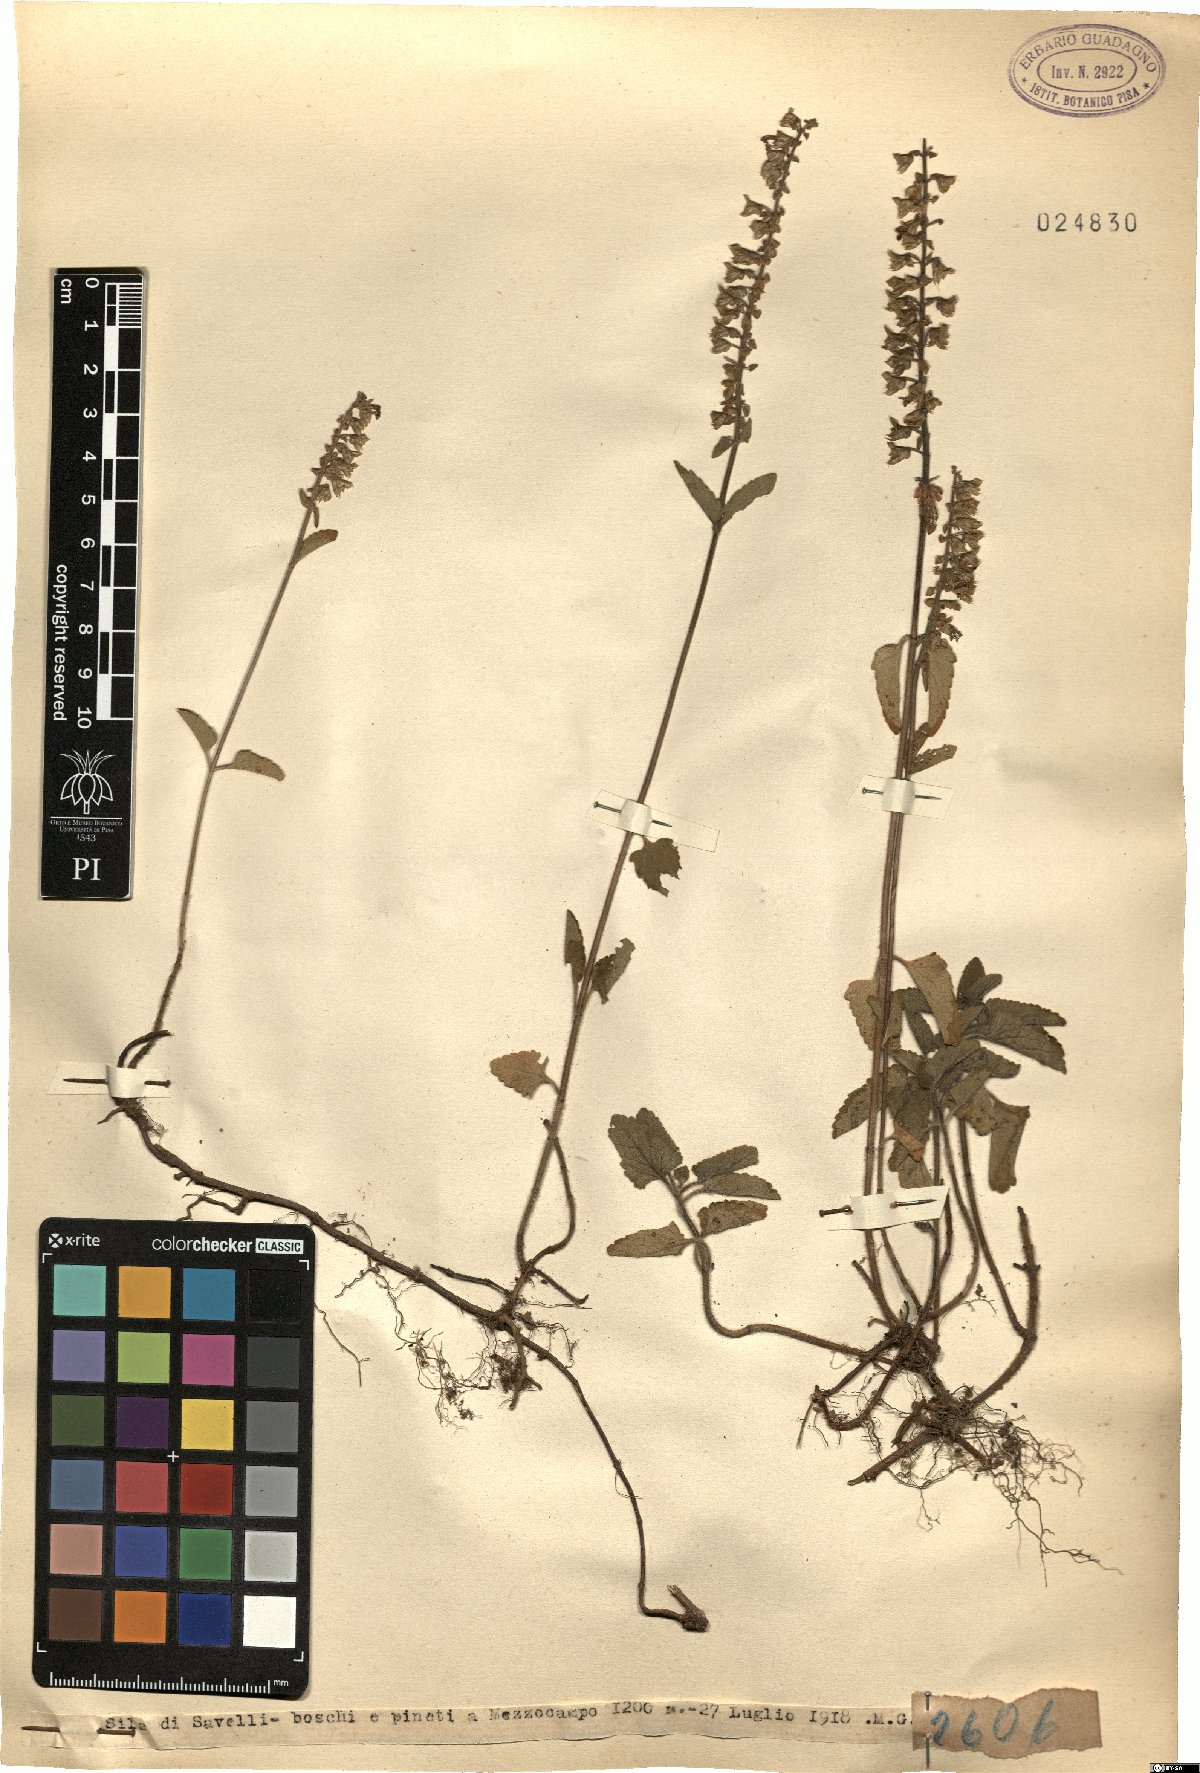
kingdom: Plantae
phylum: Tracheophyta
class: Magnoliopsida
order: Lamiales
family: Lamiaceae
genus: Teucrium
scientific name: Teucrium
